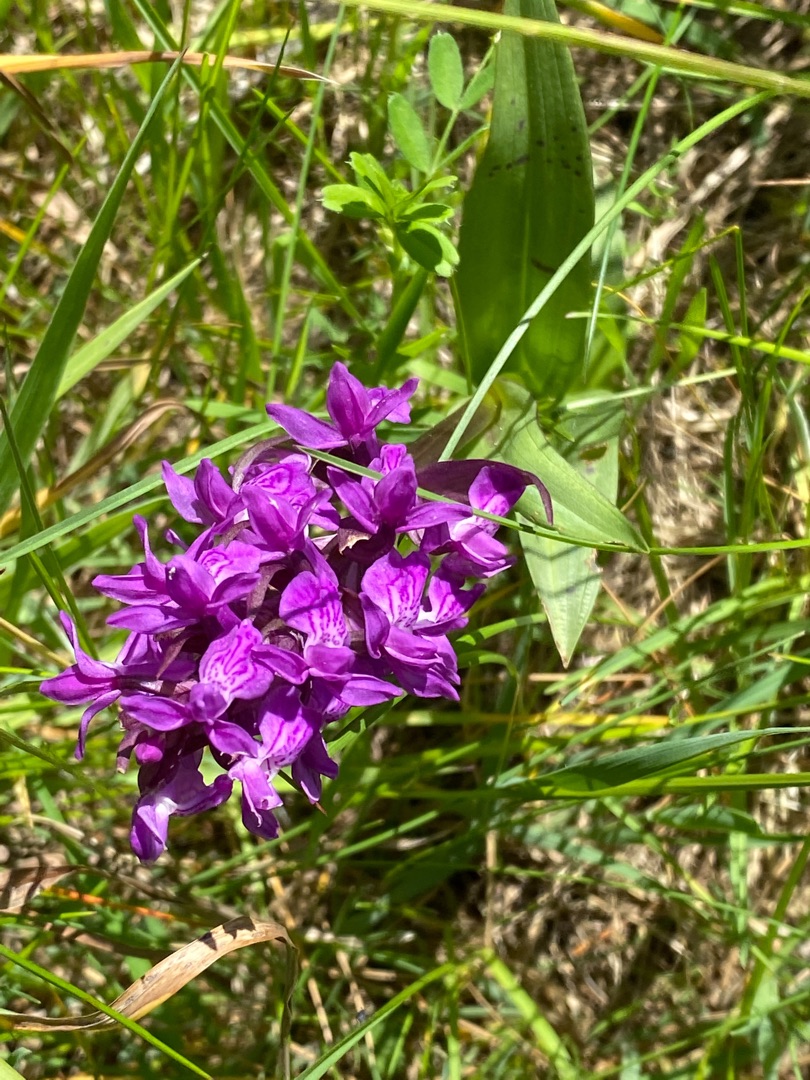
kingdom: Plantae
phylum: Tracheophyta
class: Liliopsida
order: Asparagales
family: Orchidaceae
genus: Dactylorhiza
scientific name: Dactylorhiza majalis
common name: Maj-gøgeurt
